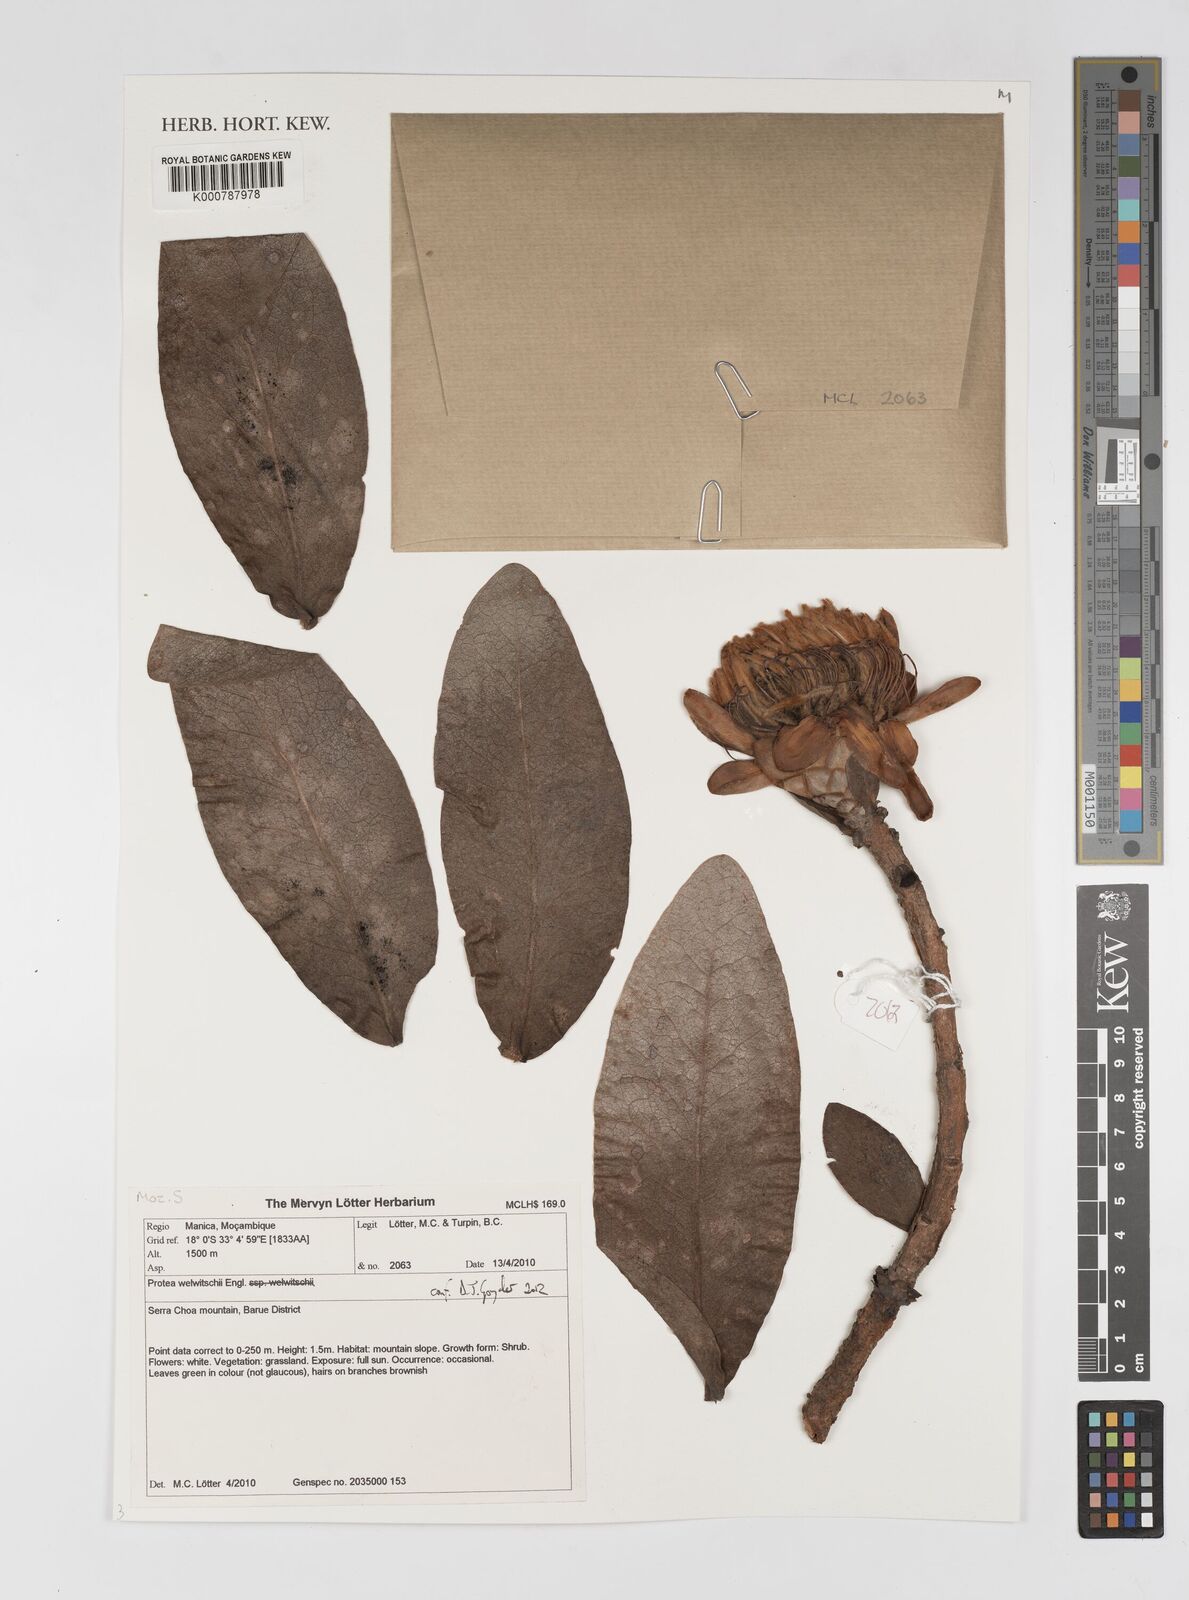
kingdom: Plantae
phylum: Tracheophyta
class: Magnoliopsida
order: Proteales
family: Proteaceae
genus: Protea
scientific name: Protea welwitschii
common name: Cluster-head protea
